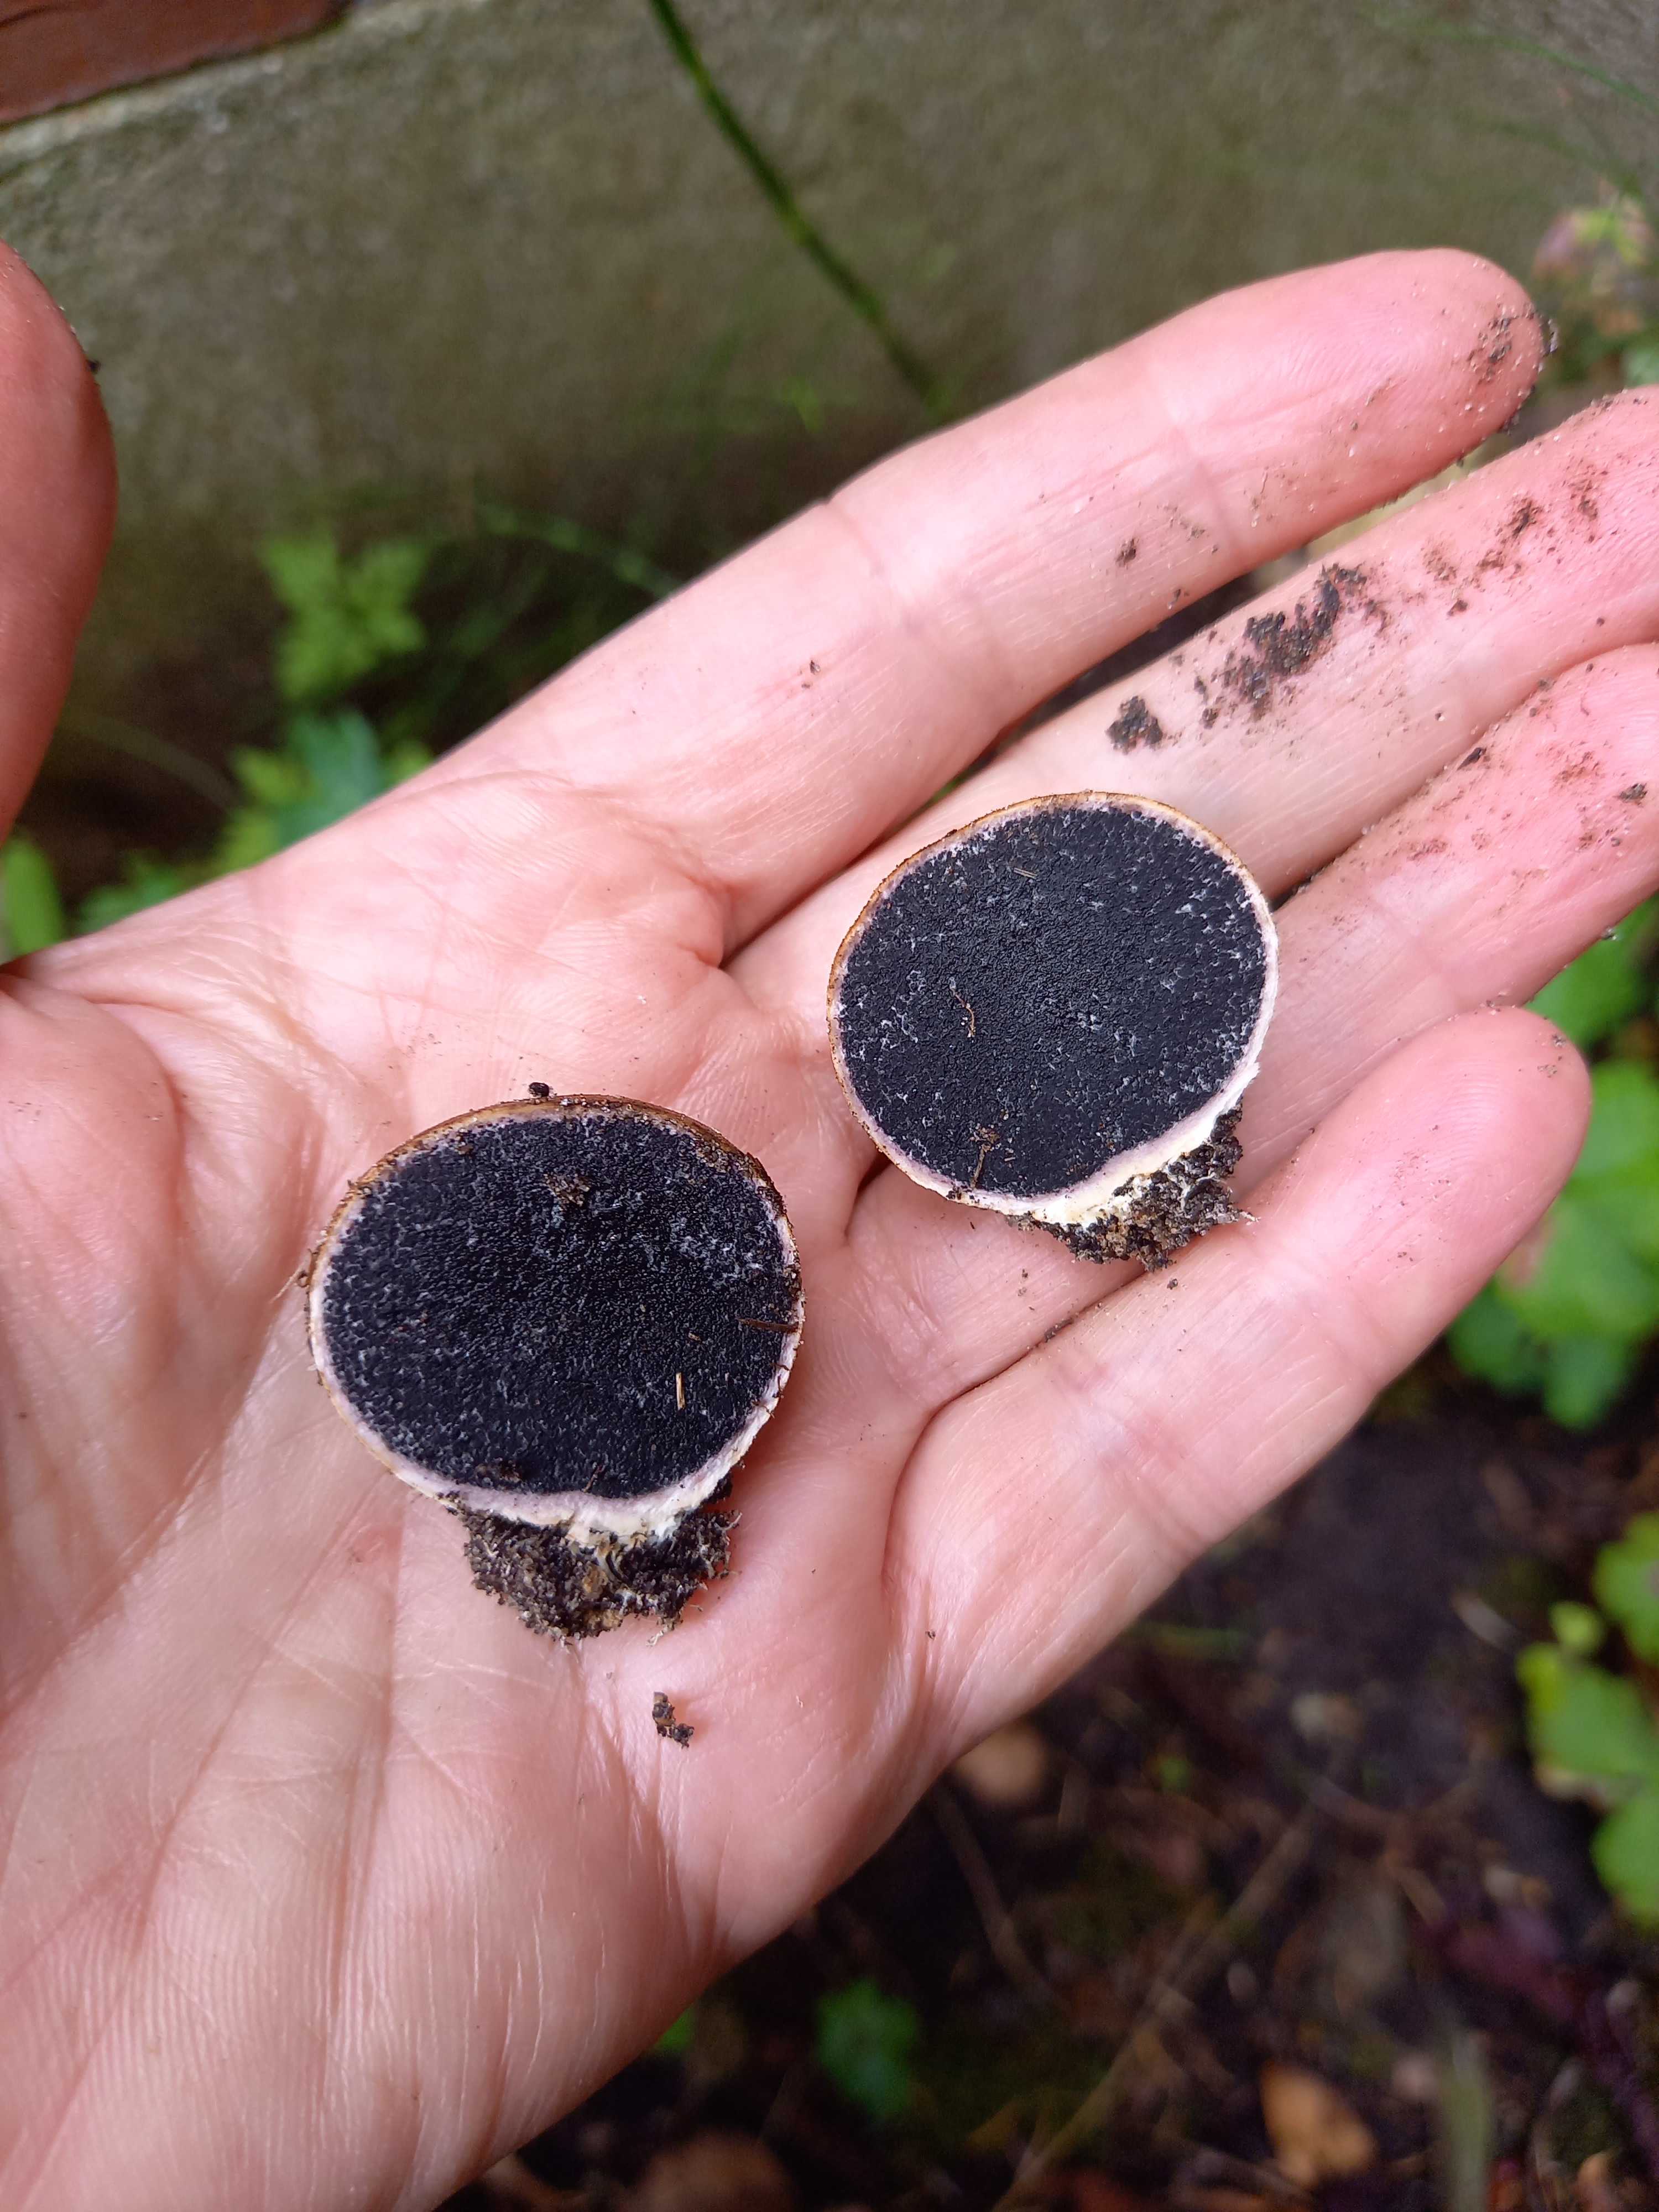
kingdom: Fungi
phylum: Basidiomycota
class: Agaricomycetes
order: Boletales
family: Sclerodermataceae
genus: Scleroderma
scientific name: Scleroderma
